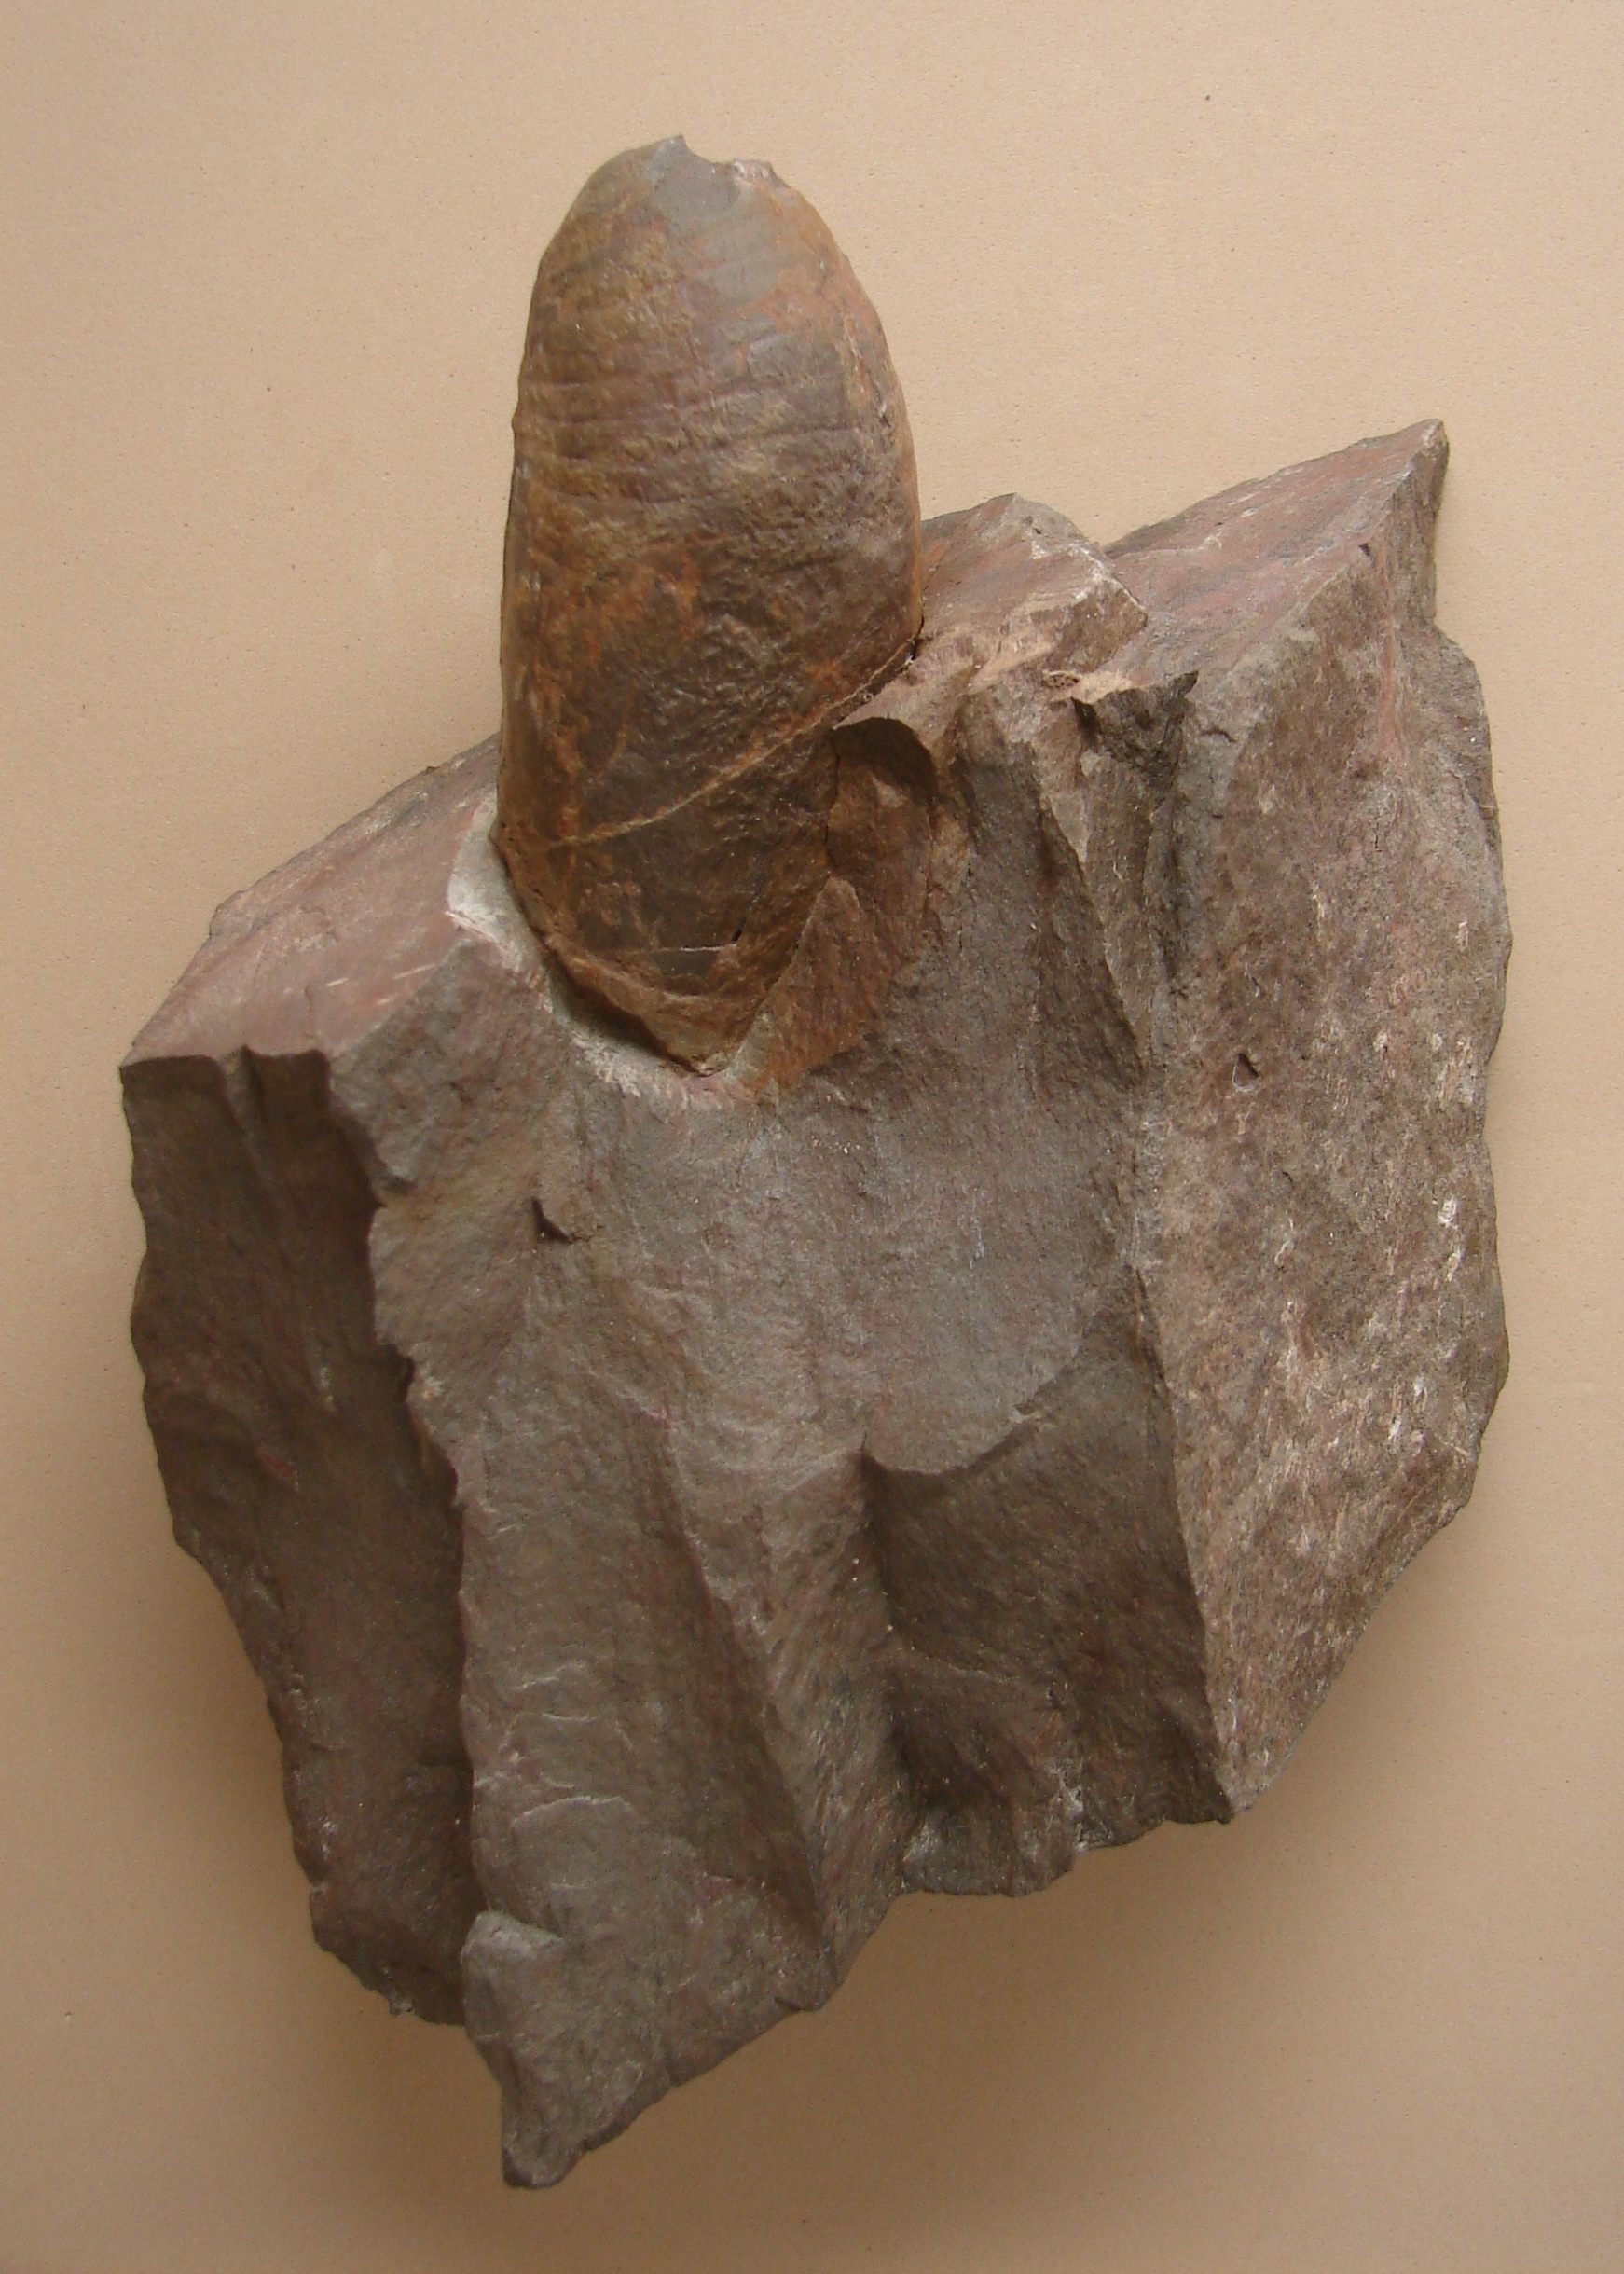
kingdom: Animalia
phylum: Mollusca
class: Cephalopoda
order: Orthocerida
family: Psuedorthoceratidae
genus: Dolorthoceras
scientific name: Dolorthoceras
